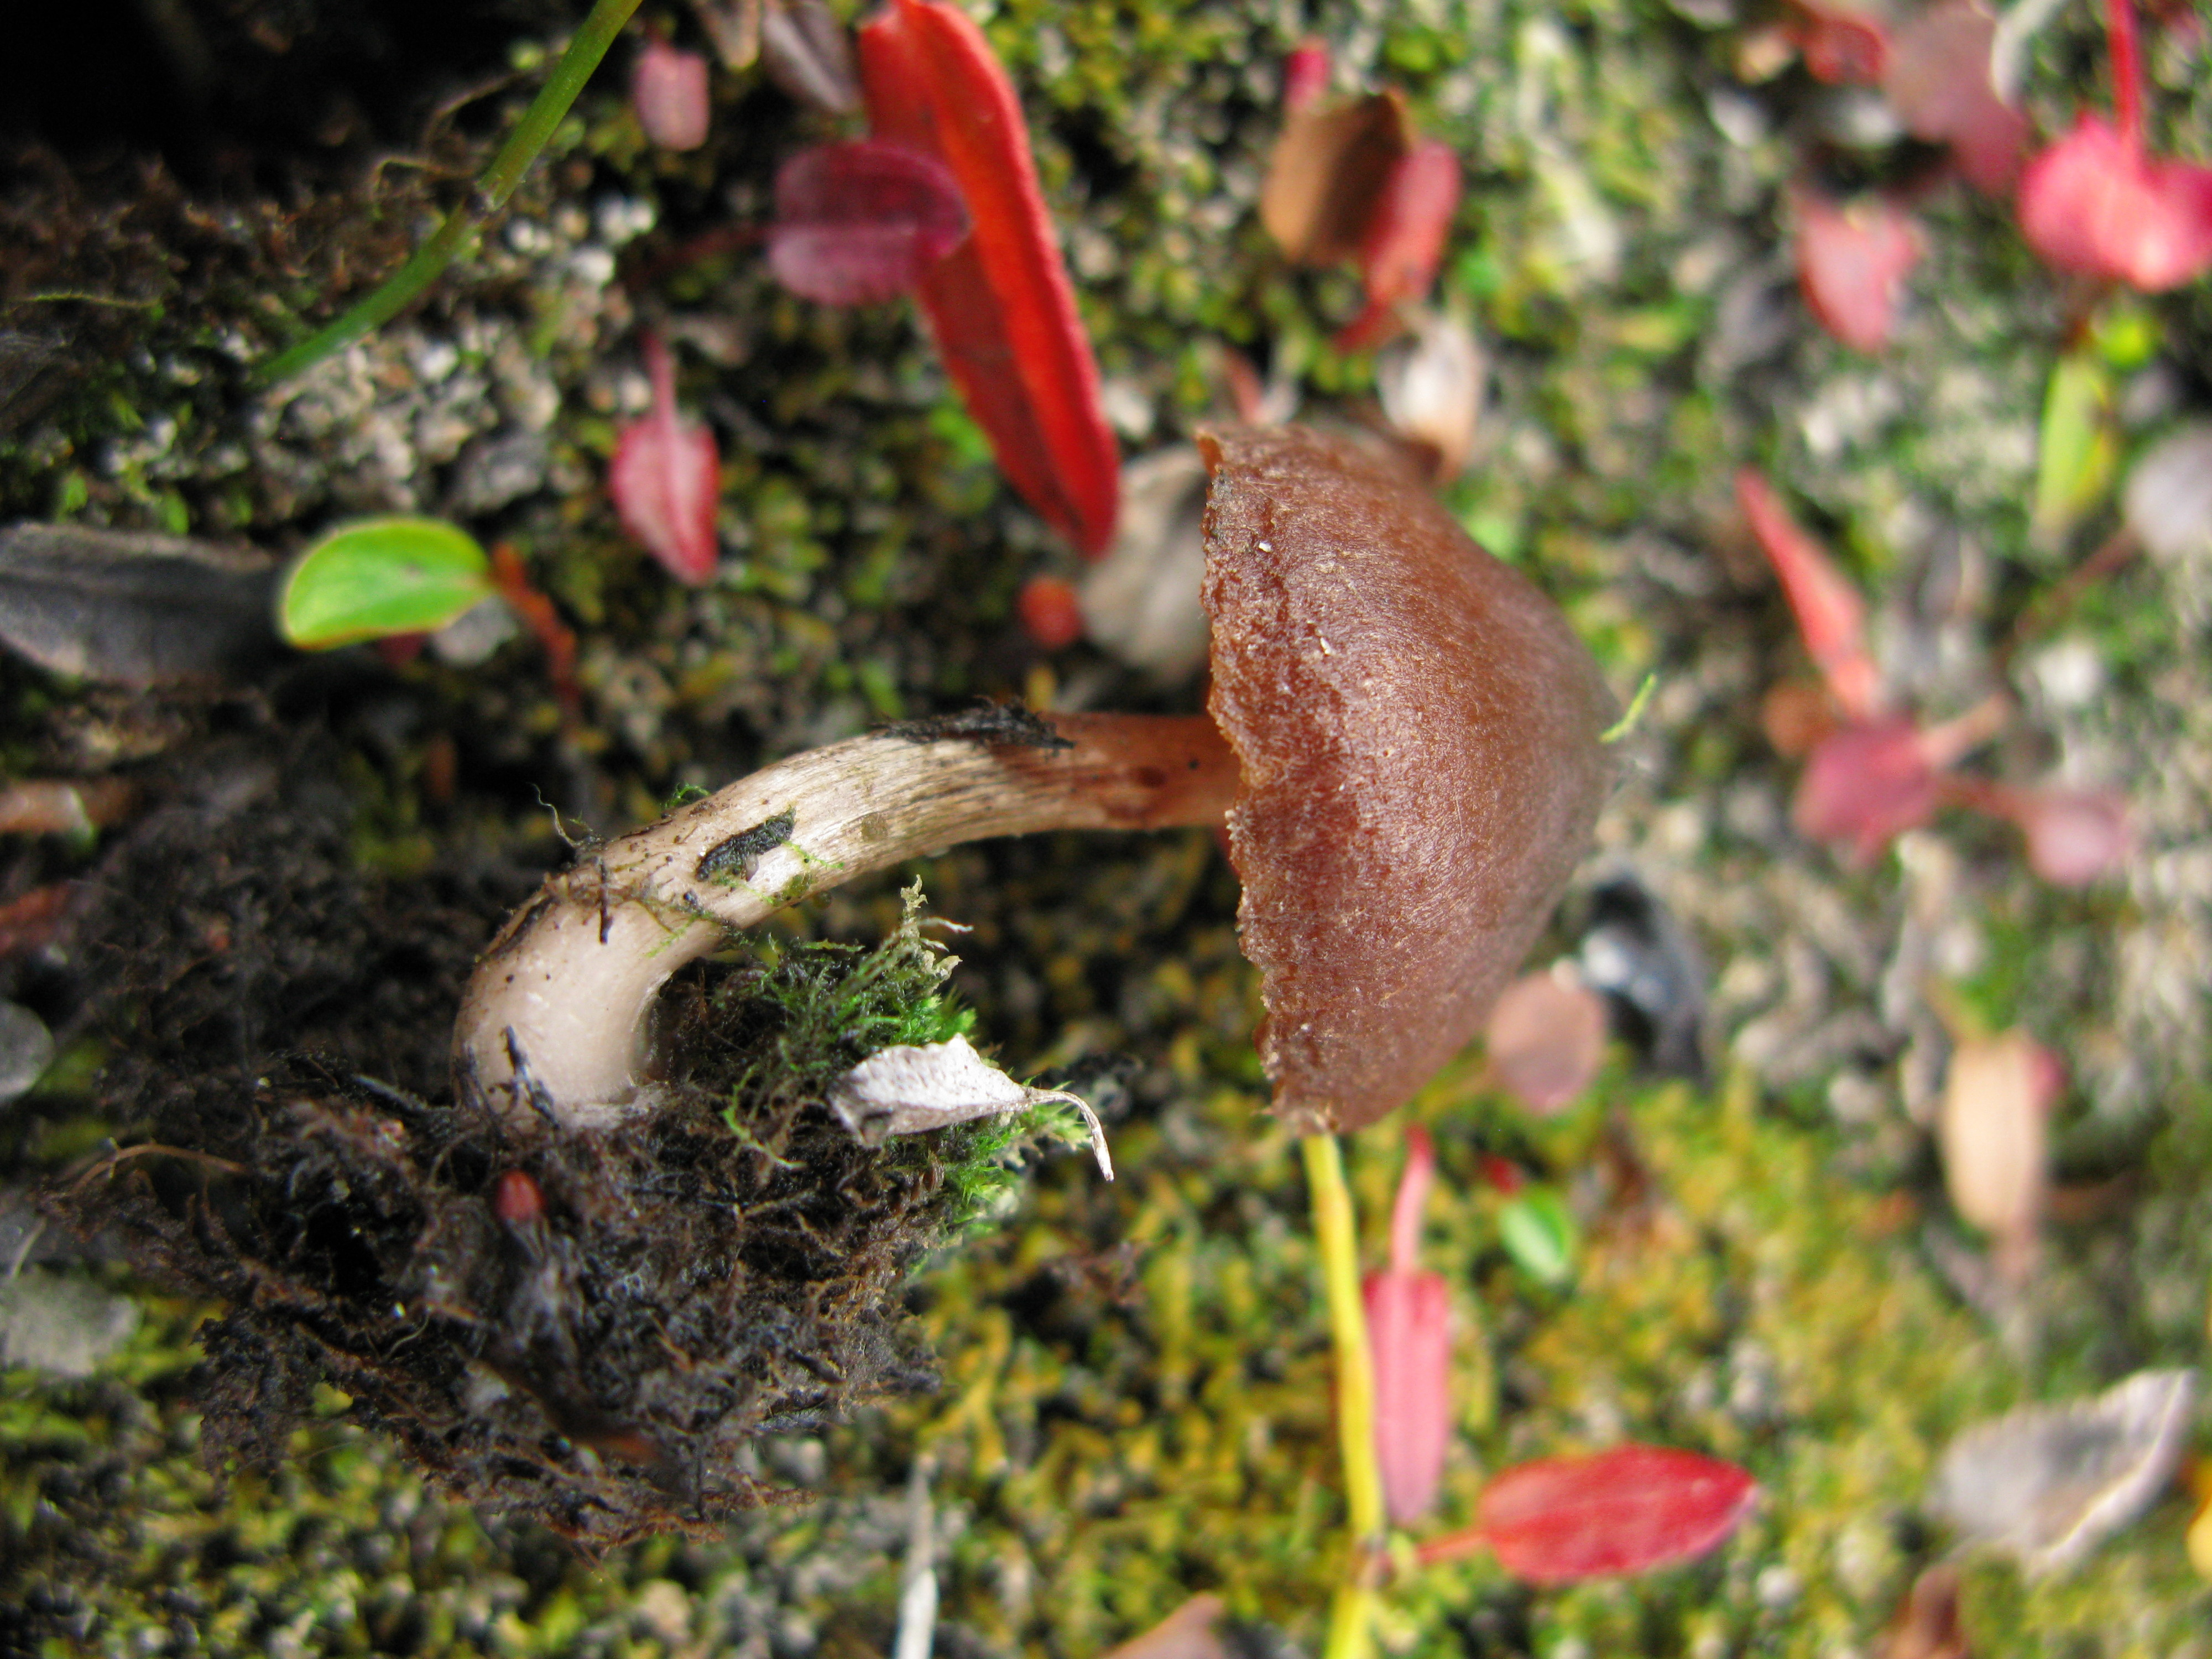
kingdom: Fungi
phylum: Basidiomycota
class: Agaricomycetes
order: Agaricales
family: Cortinariaceae
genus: Cortinarius
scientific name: Cortinarius pulchripes
